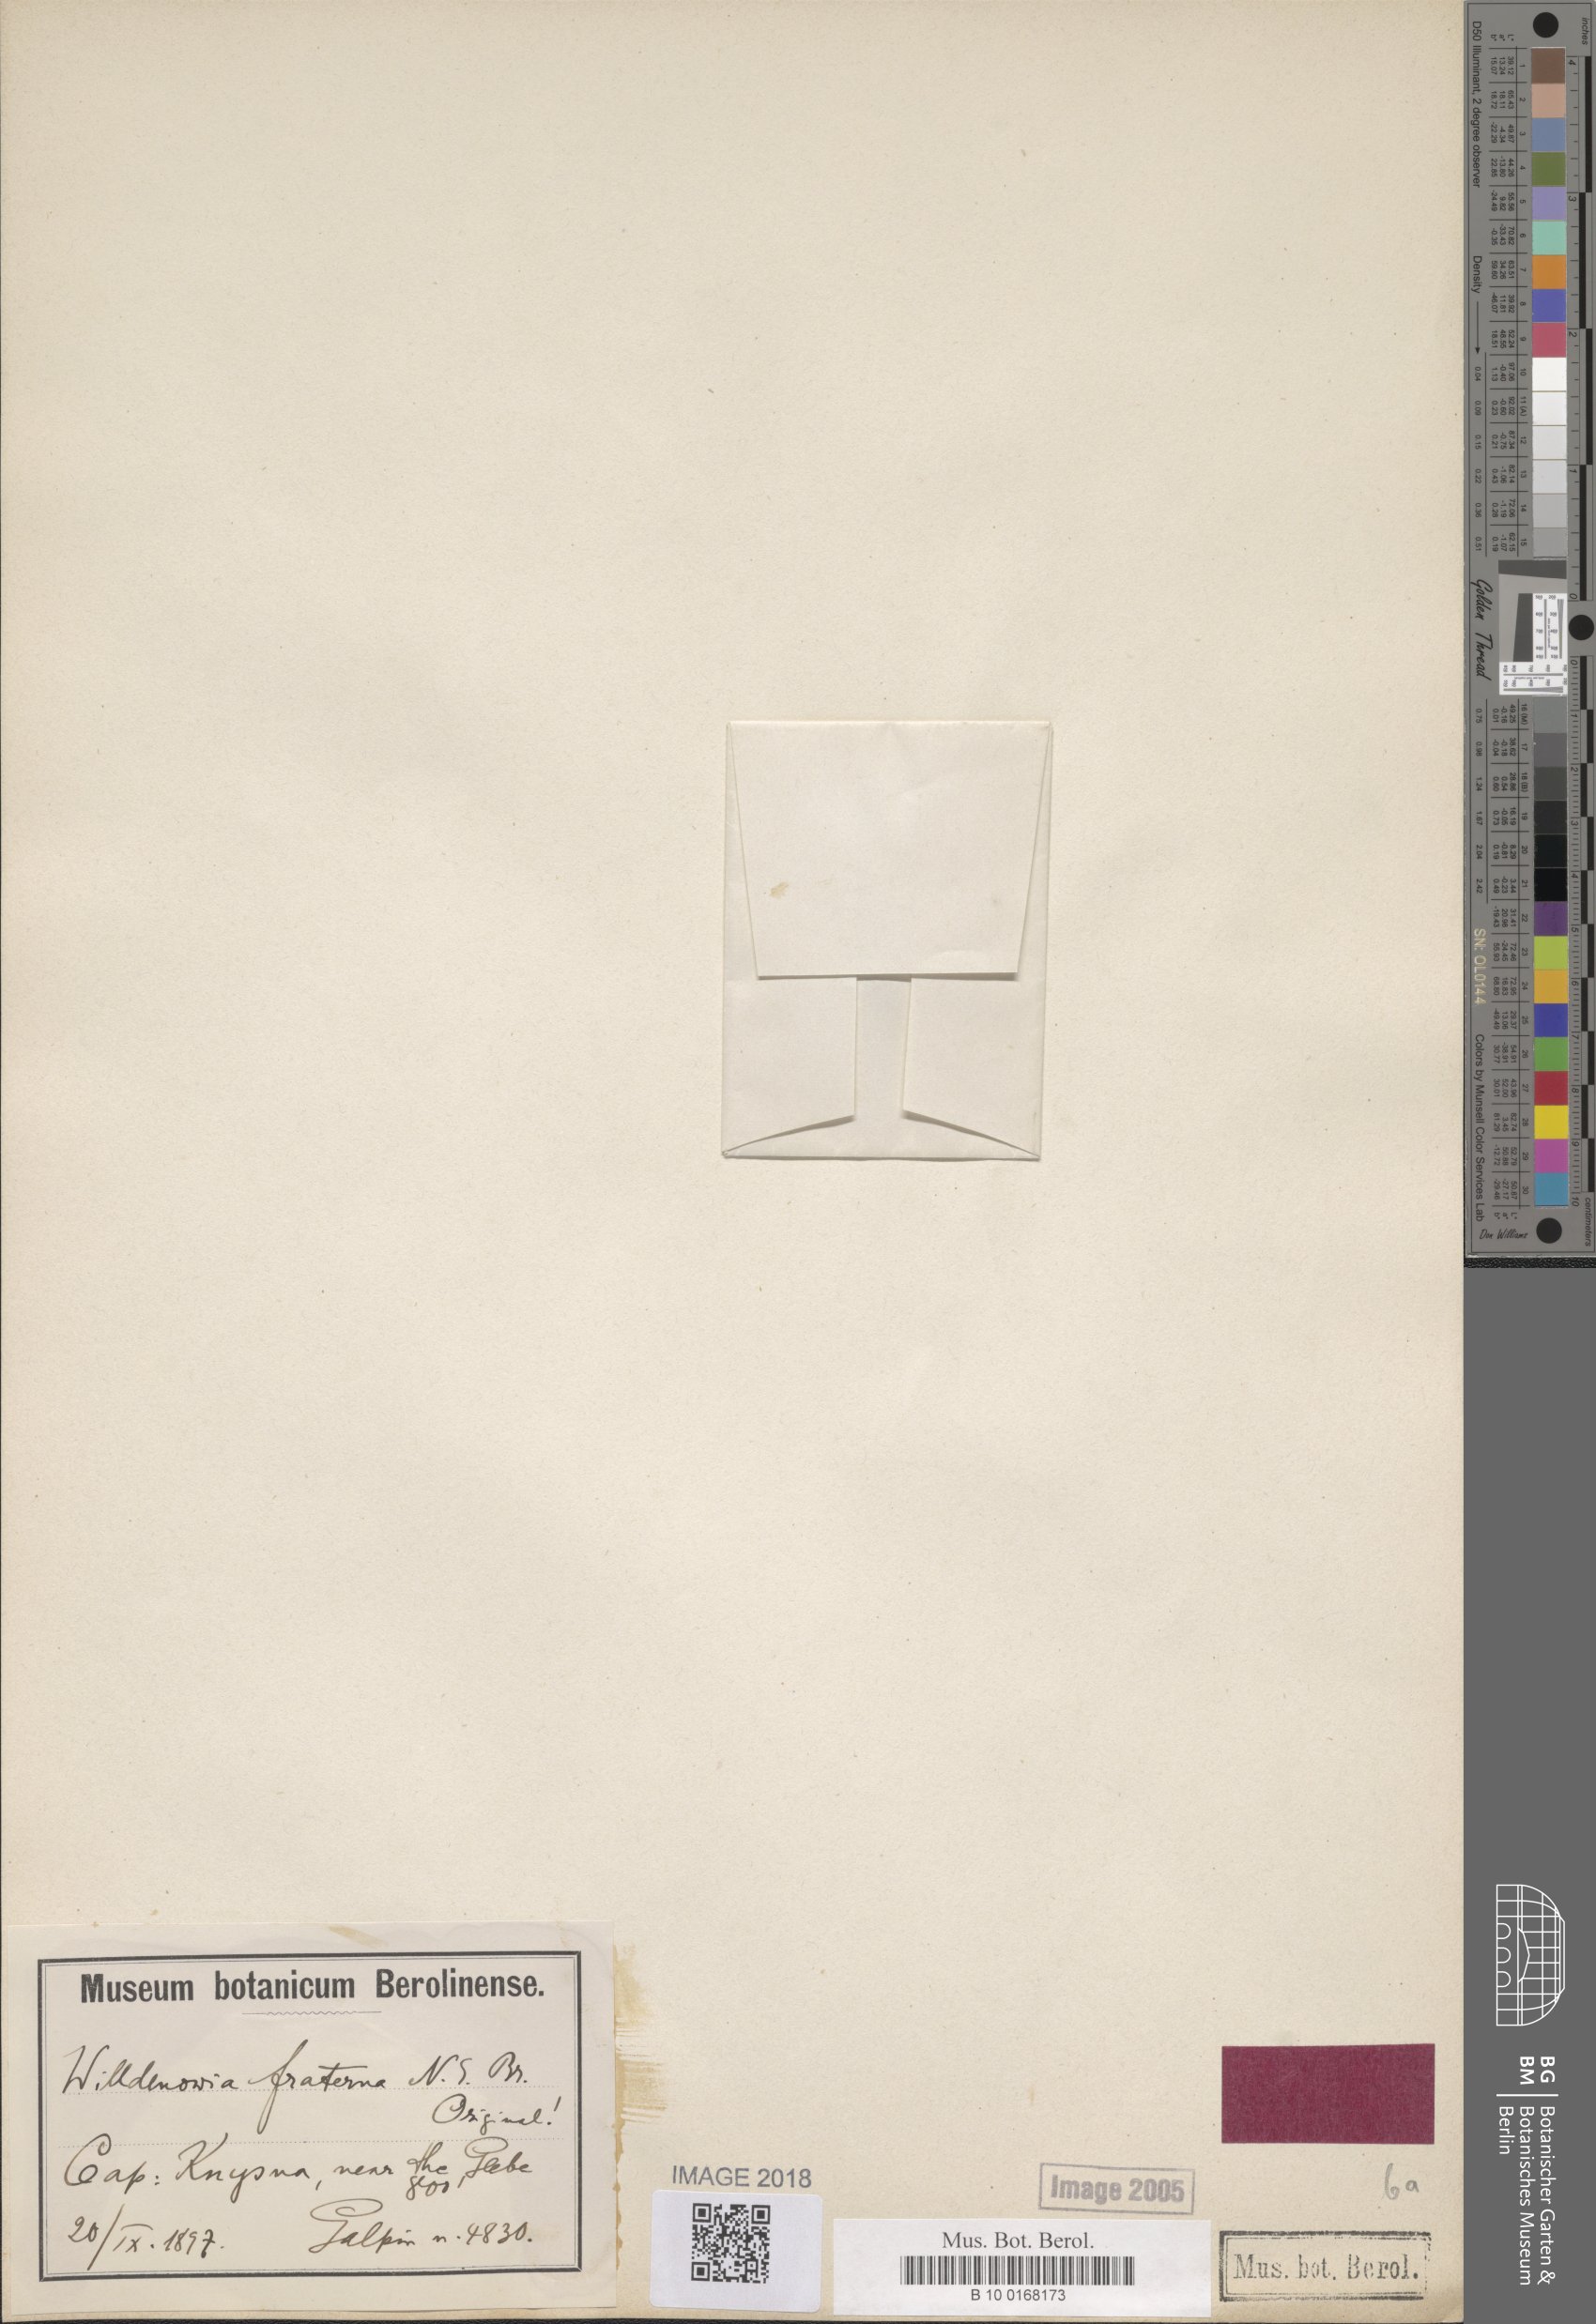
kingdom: Plantae
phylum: Tracheophyta
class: Liliopsida
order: Poales
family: Restionaceae
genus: Willdenowia
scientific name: Willdenowia teres
